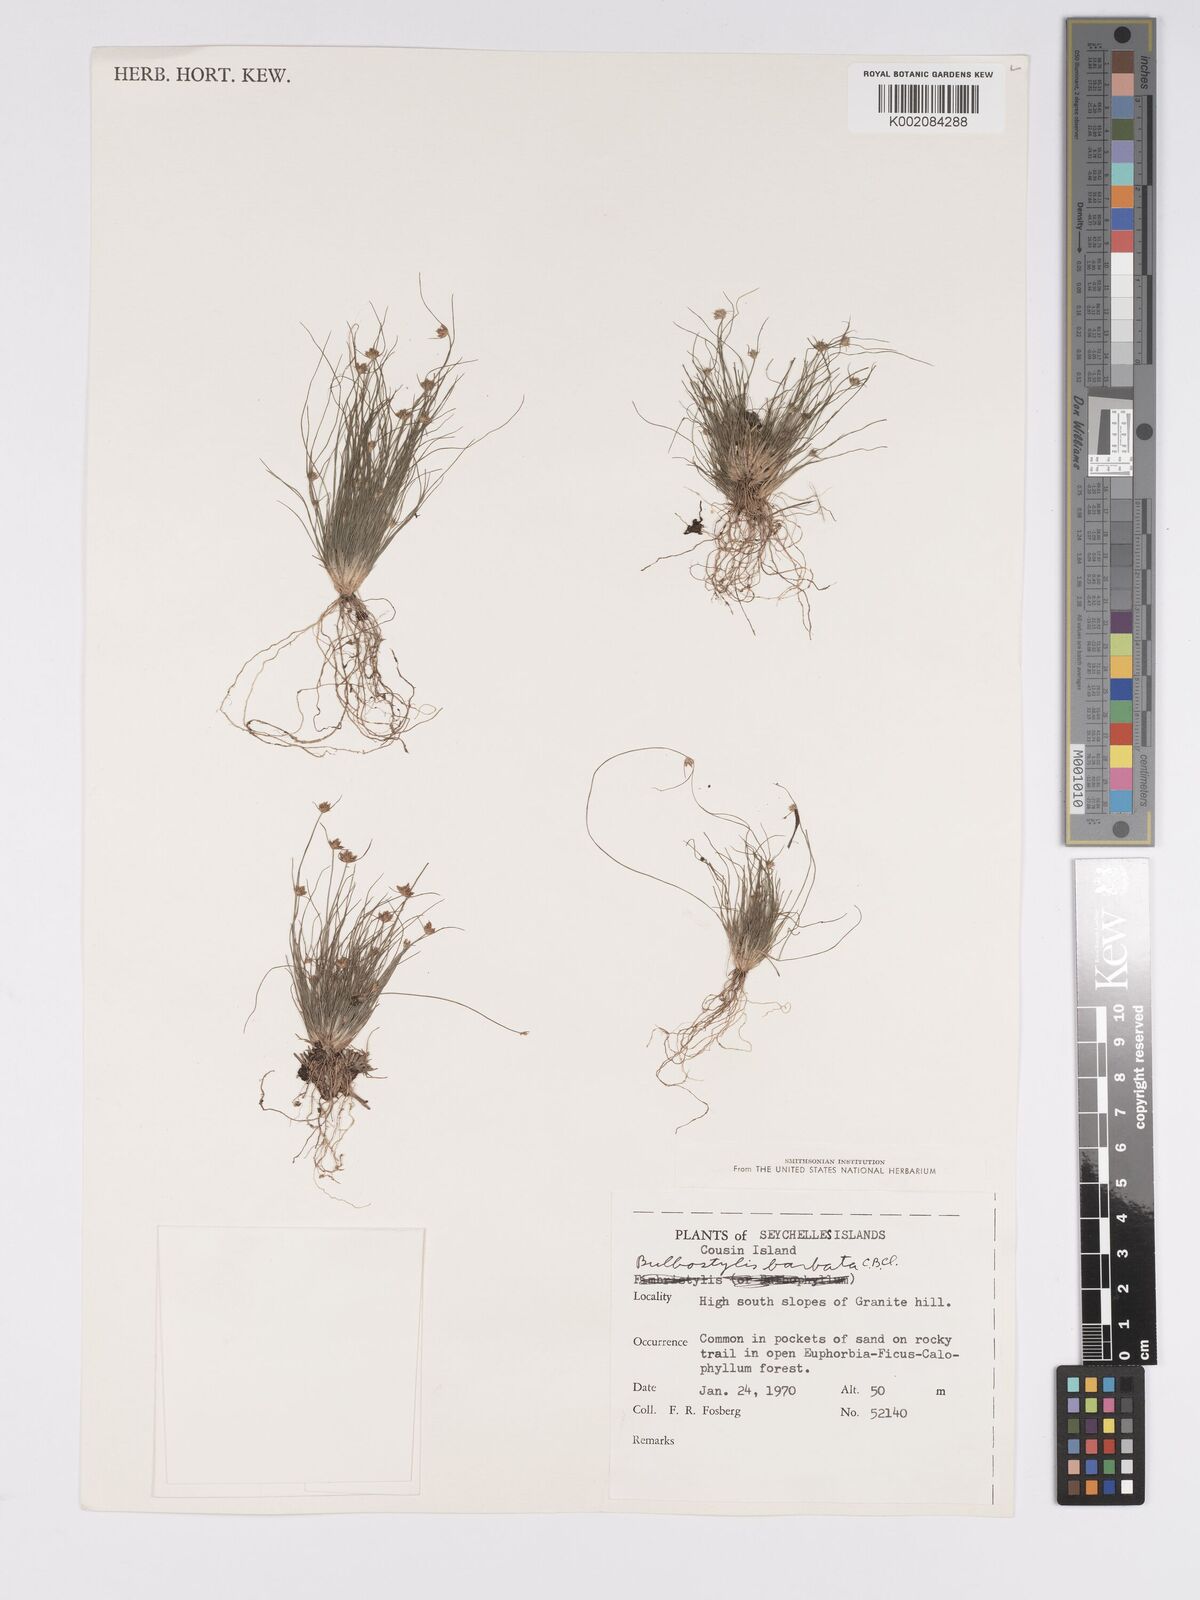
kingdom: Plantae
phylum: Tracheophyta
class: Liliopsida
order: Poales
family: Cyperaceae
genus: Bulbostylis
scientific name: Bulbostylis barbata
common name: Watergrass
